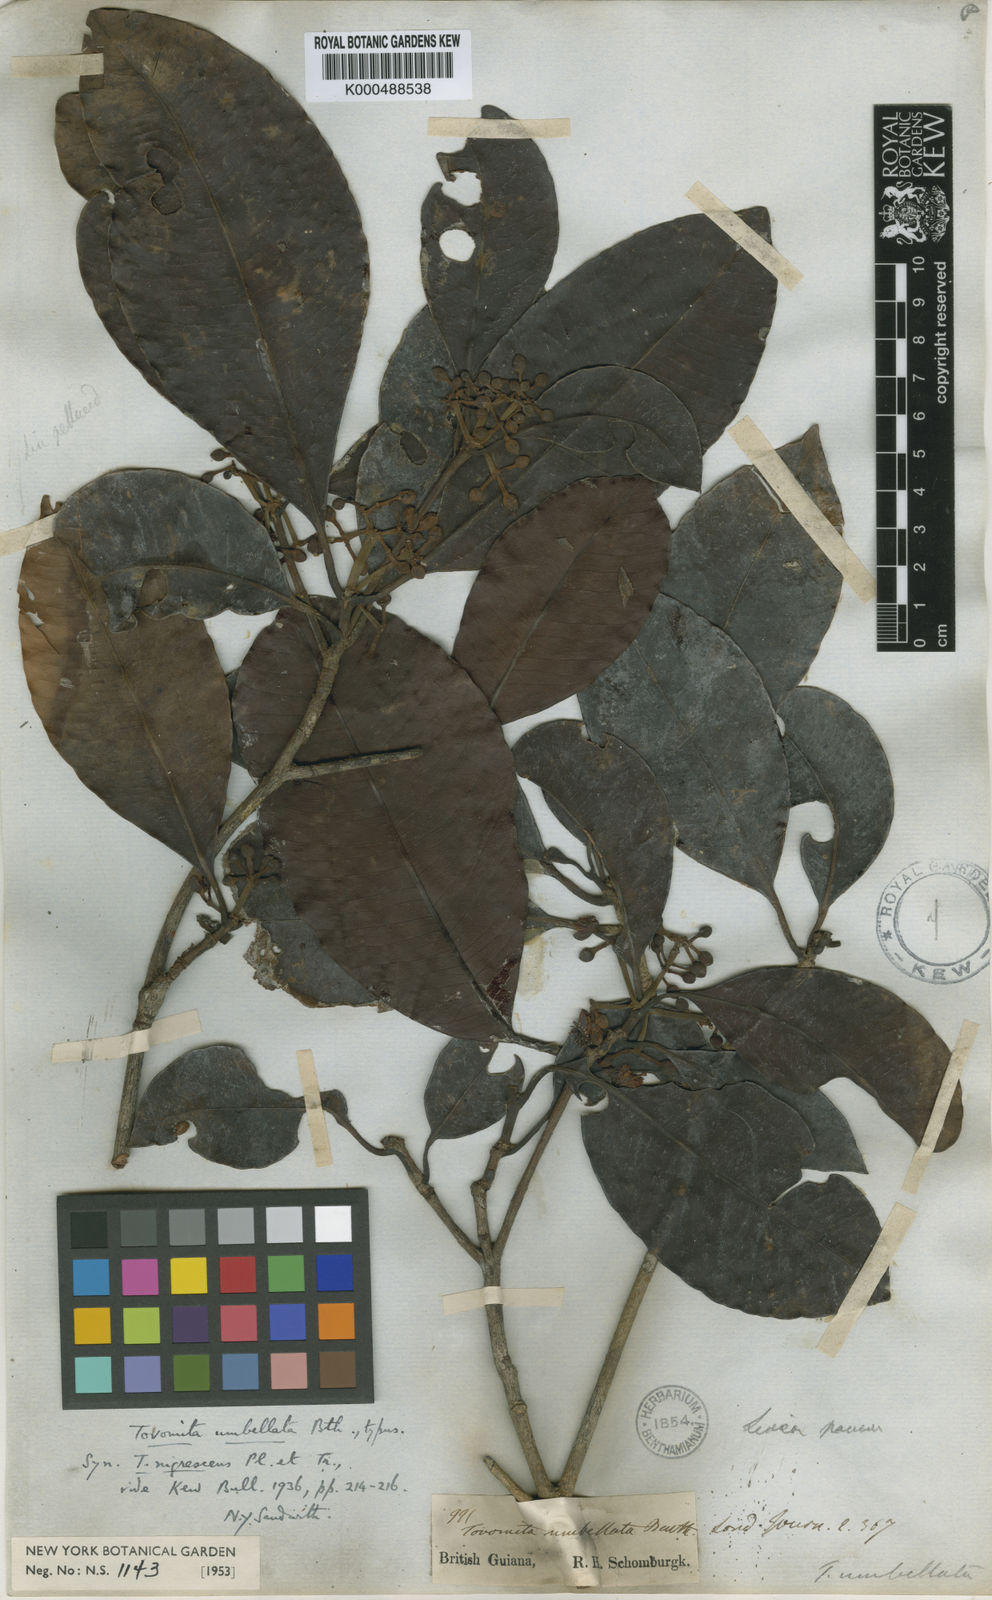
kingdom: Plantae
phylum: Tracheophyta
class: Magnoliopsida
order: Malpighiales
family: Clusiaceae
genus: Tovomita
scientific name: Tovomita umbellata
